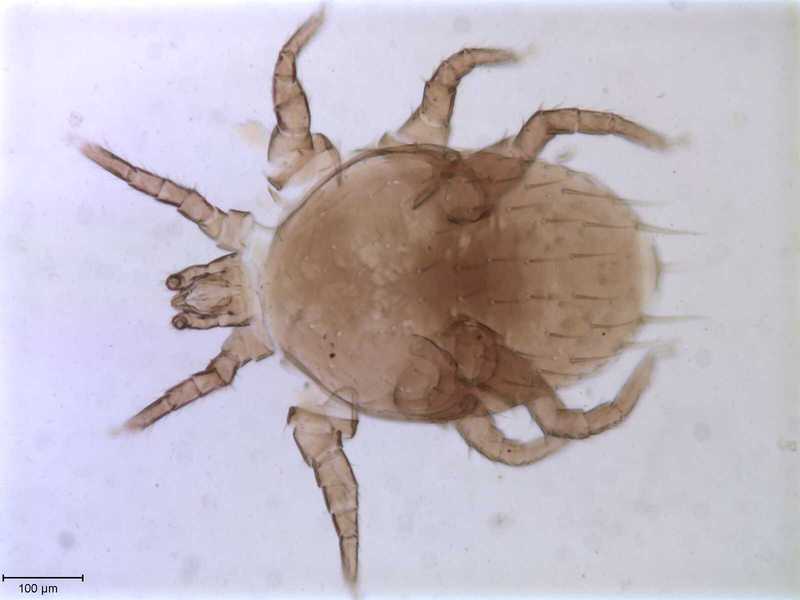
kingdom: Animalia
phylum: Arthropoda
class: Arachnida
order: Mesostigmata
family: Melicharidae
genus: Proctolaelaps
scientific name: Proctolaelaps xyloteri
